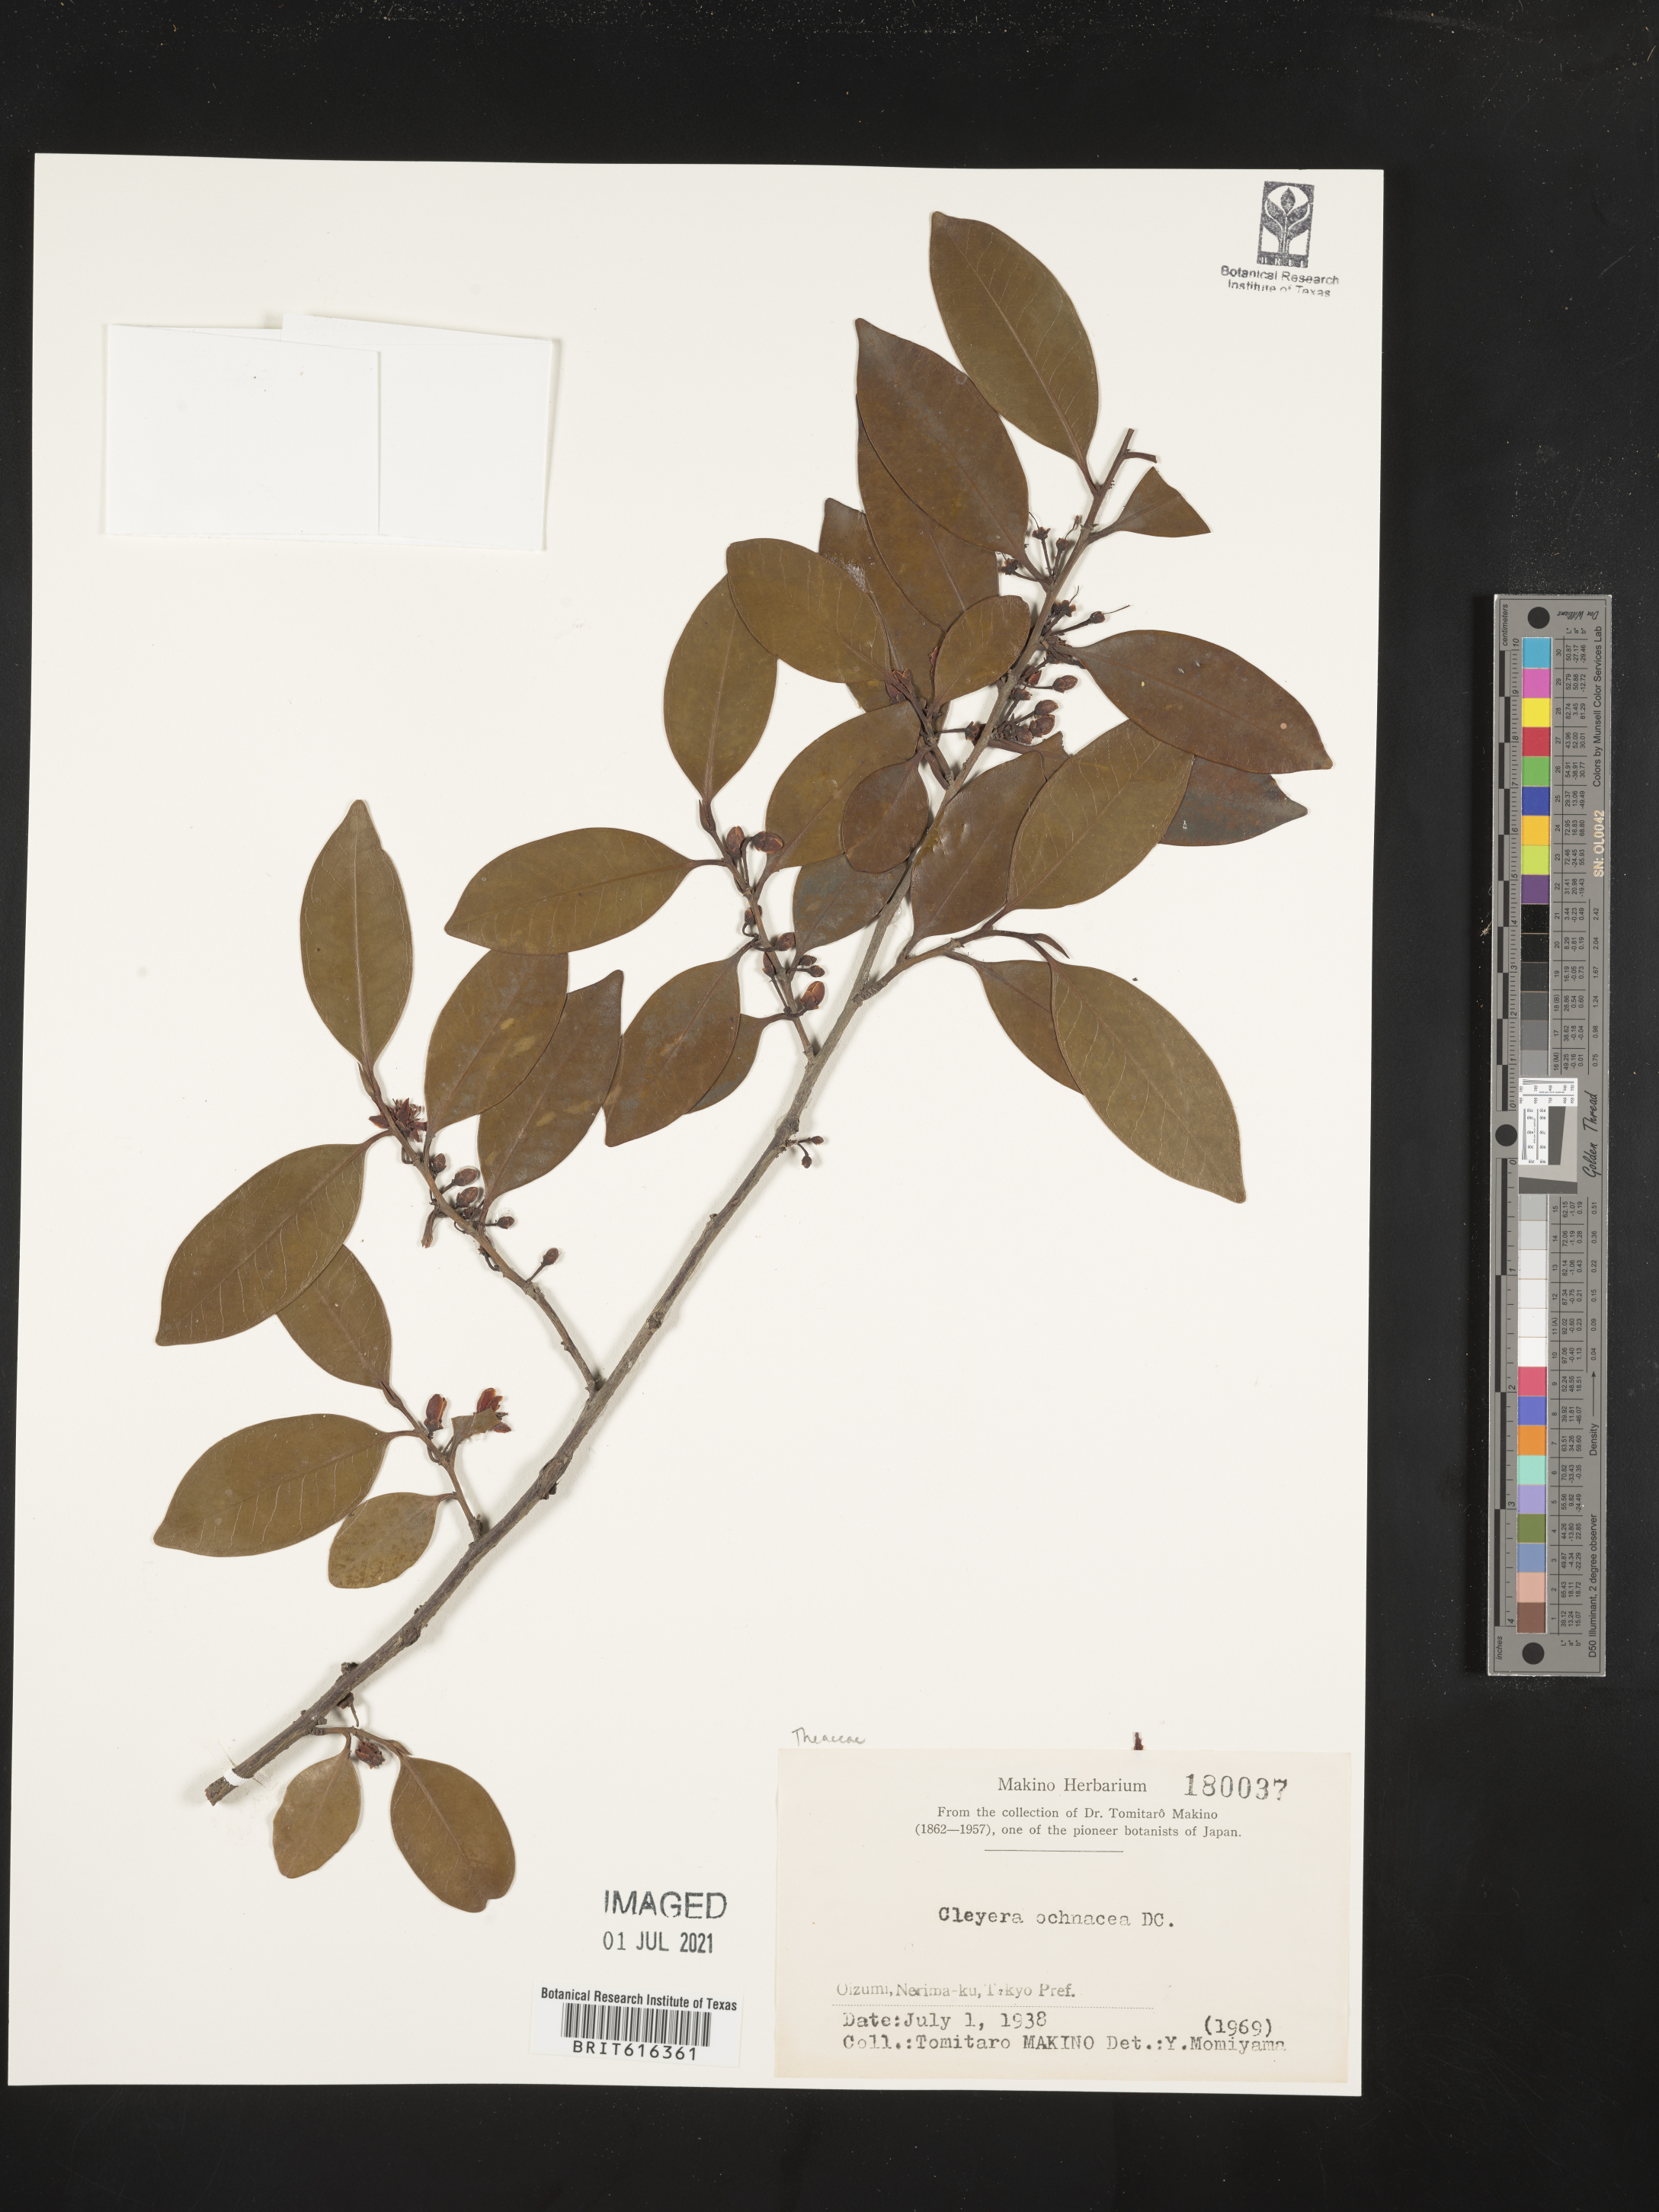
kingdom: Plantae
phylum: Tracheophyta
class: Magnoliopsida
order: Ericales
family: Pentaphylacaceae
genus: Cleyera
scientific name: Cleyera japonica
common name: Sakaki
